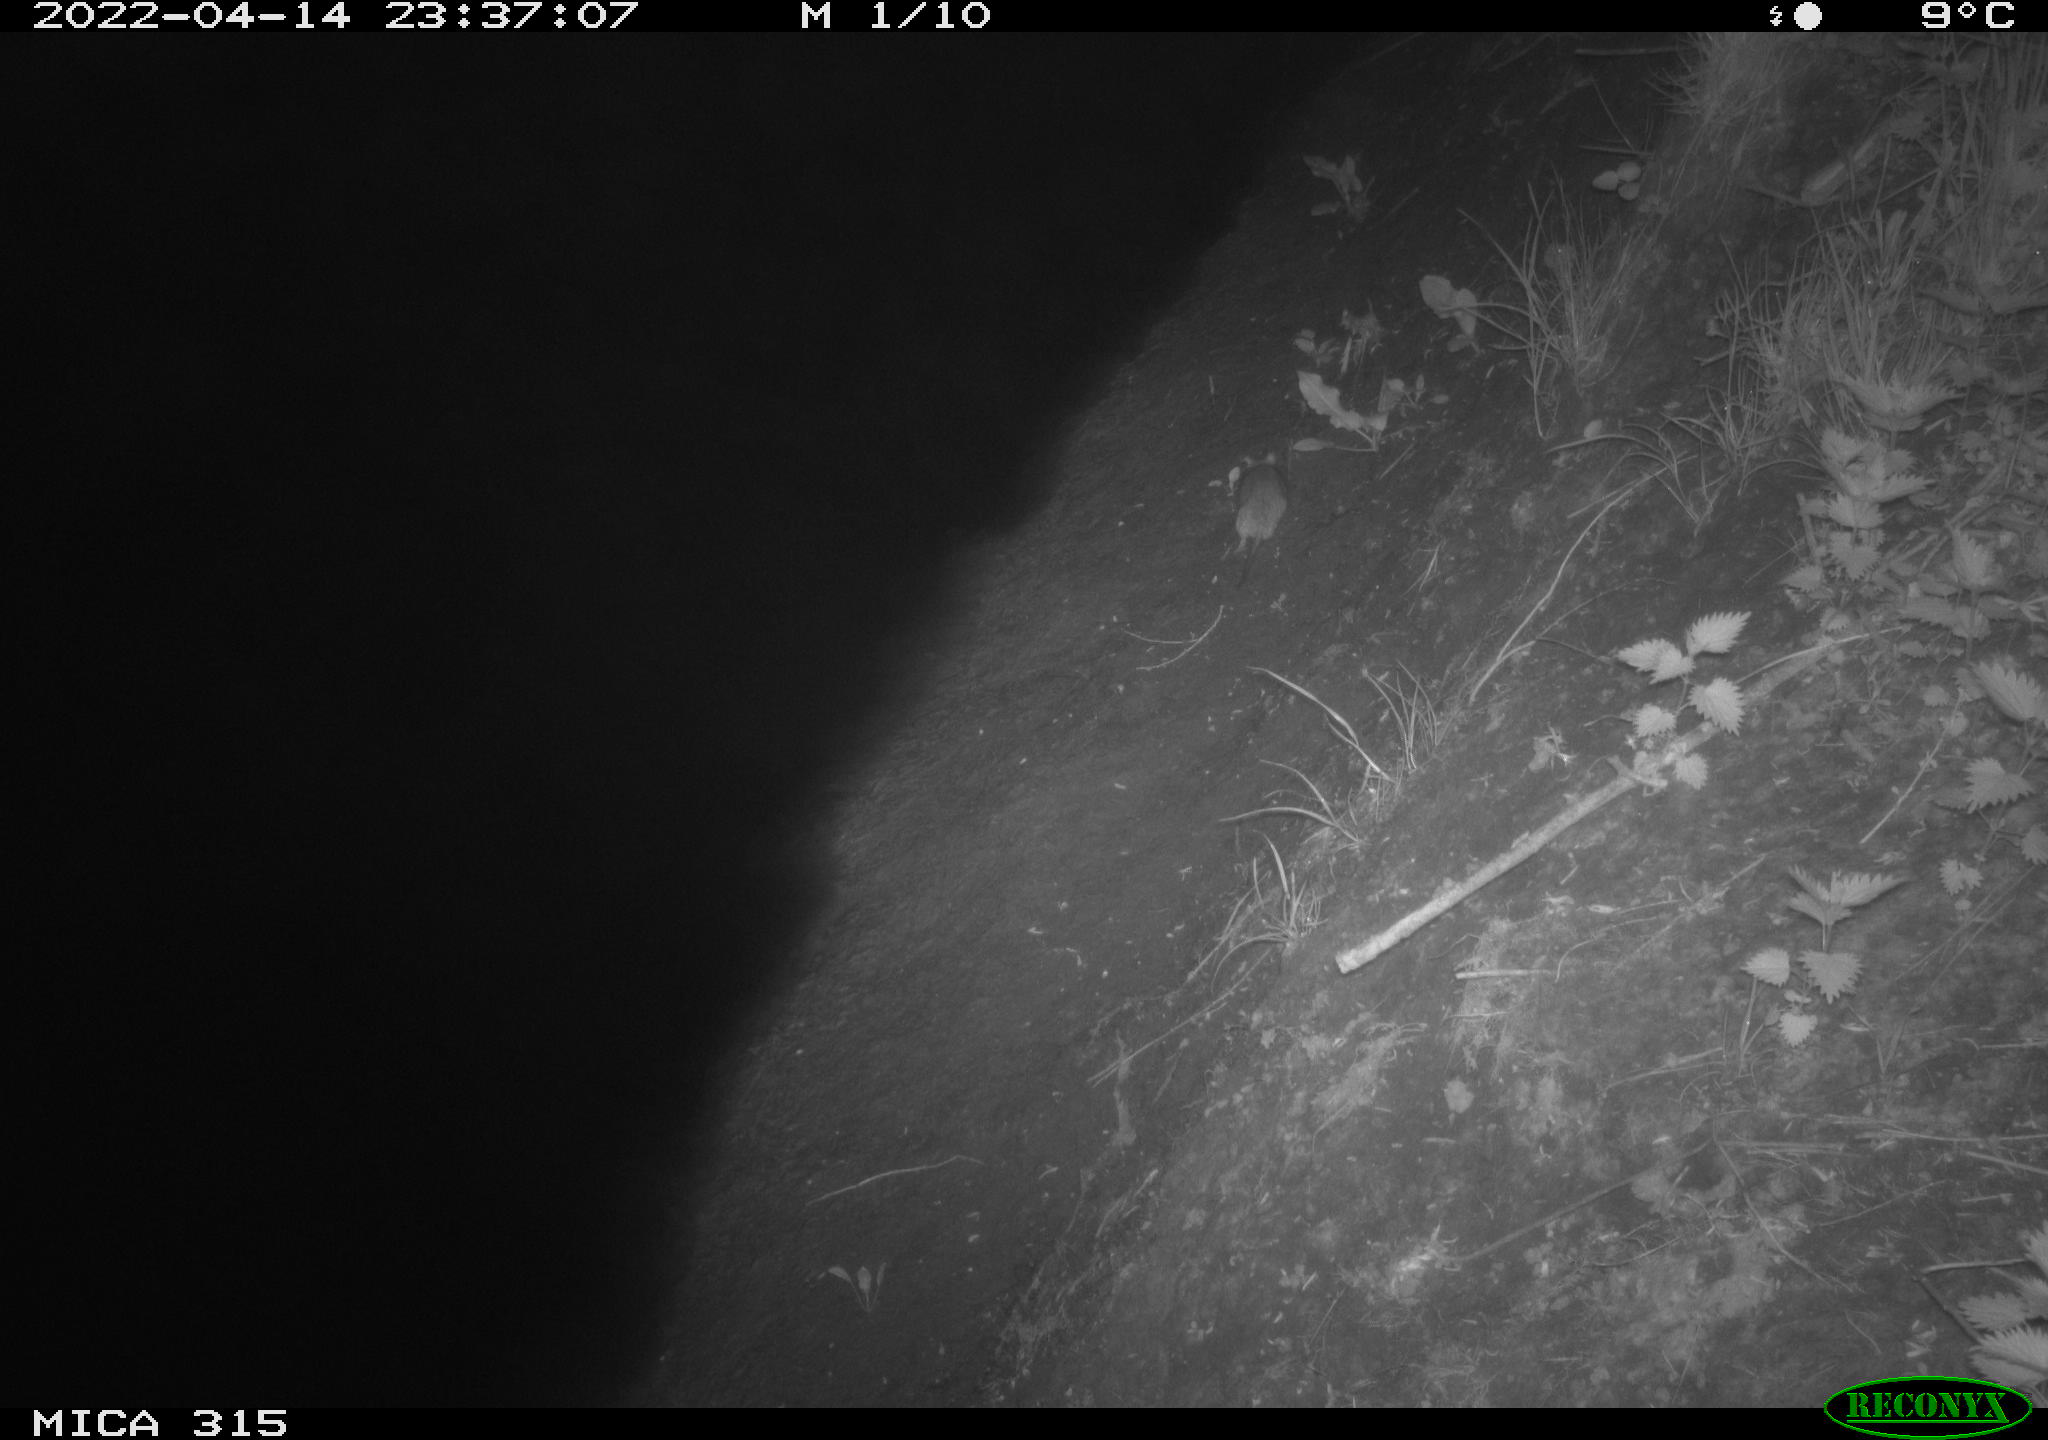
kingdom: Animalia
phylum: Chordata
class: Mammalia
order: Rodentia
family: Muridae
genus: Rattus
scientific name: Rattus norvegicus
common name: Brown rat
